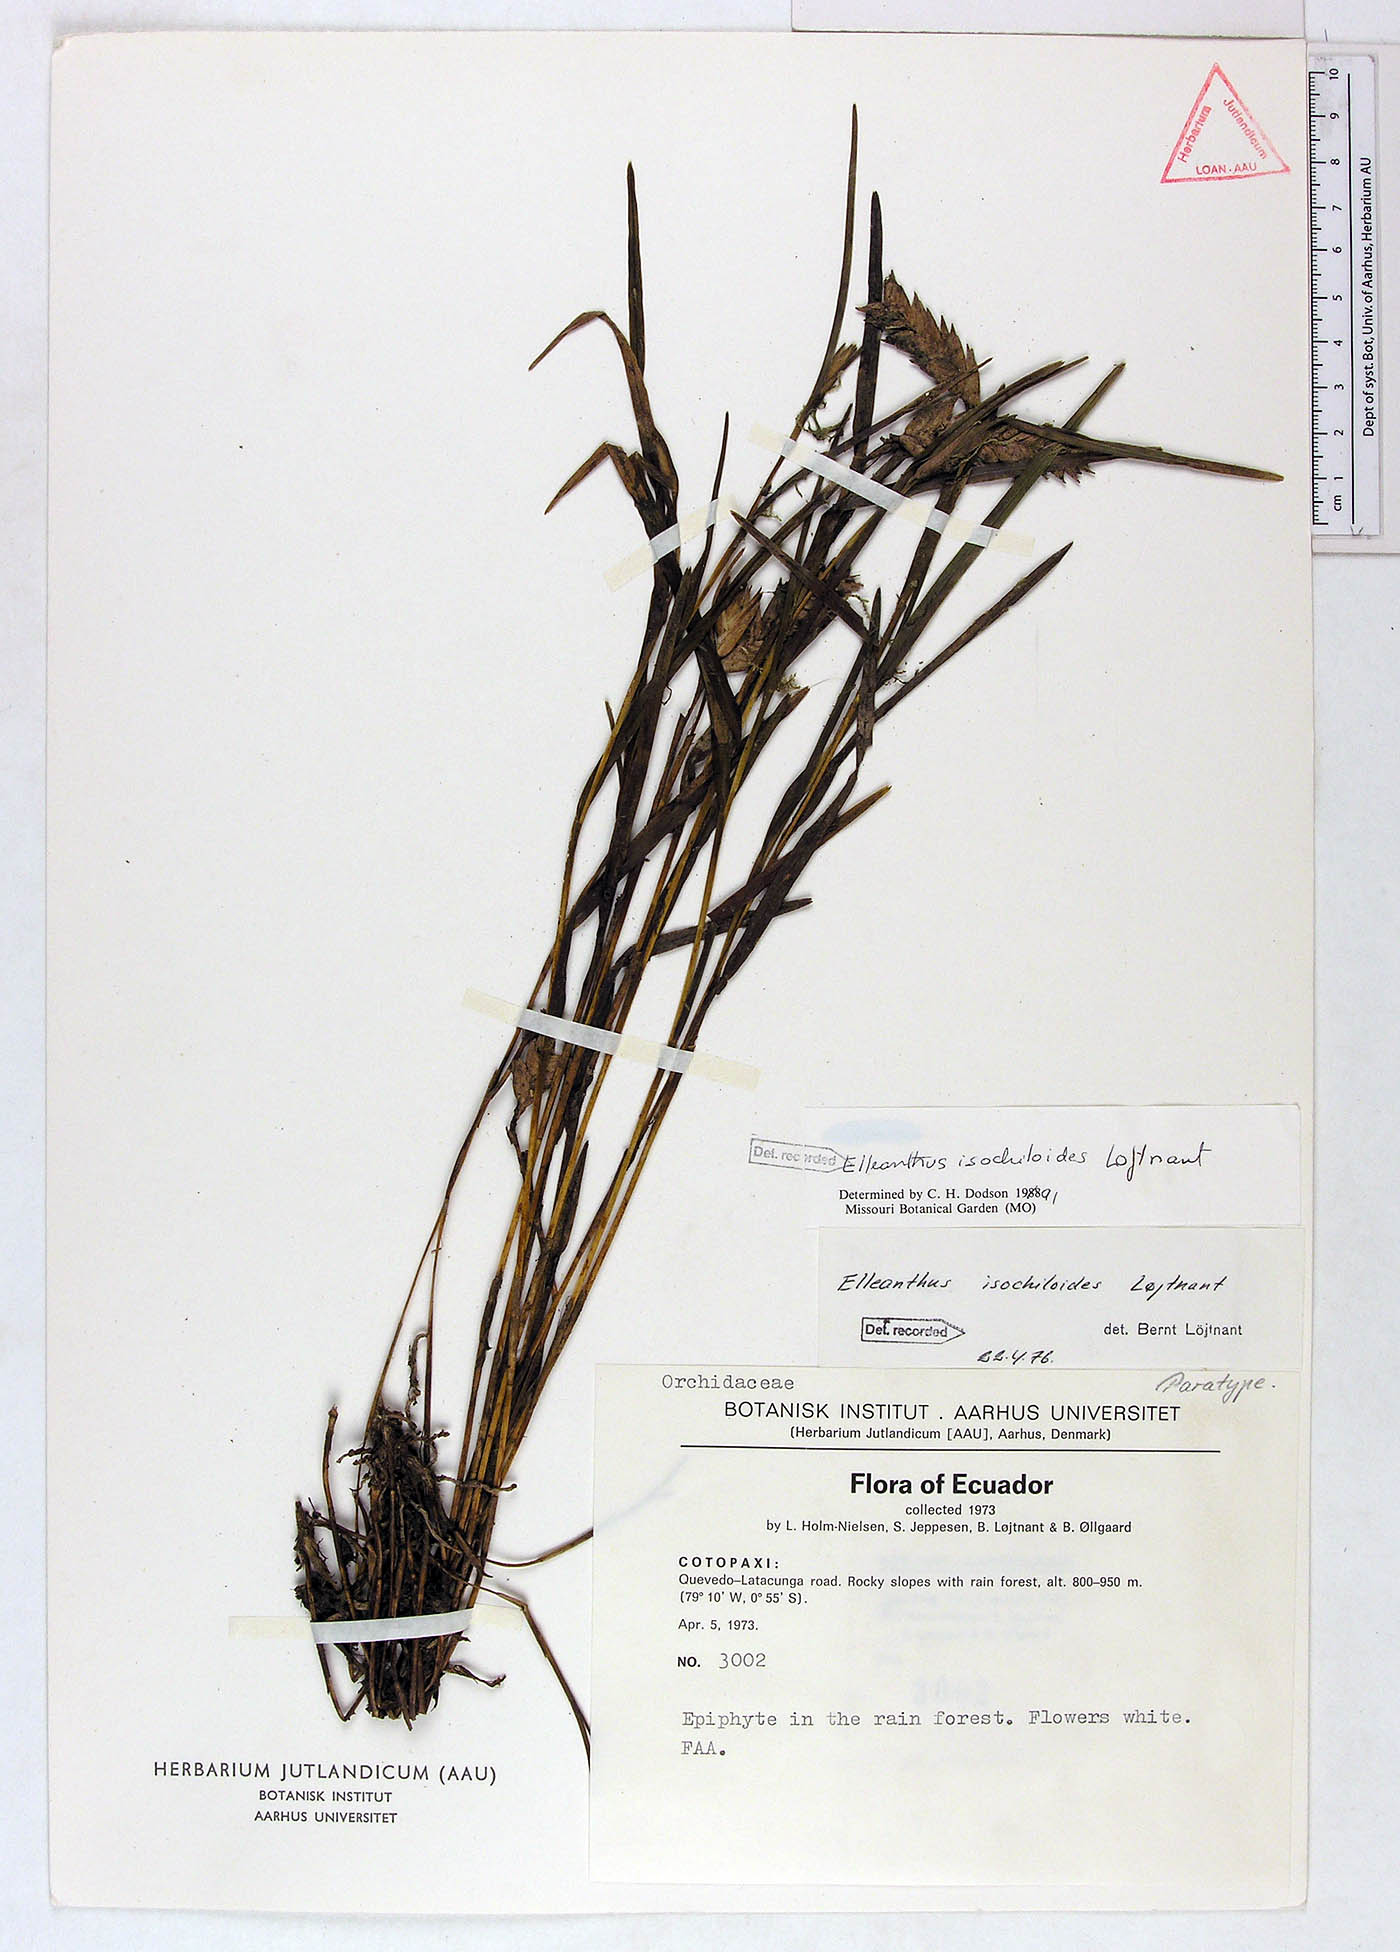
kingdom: Plantae
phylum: Tracheophyta
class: Liliopsida
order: Asparagales
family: Orchidaceae
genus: Elleanthus
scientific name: Elleanthus isochiloides
